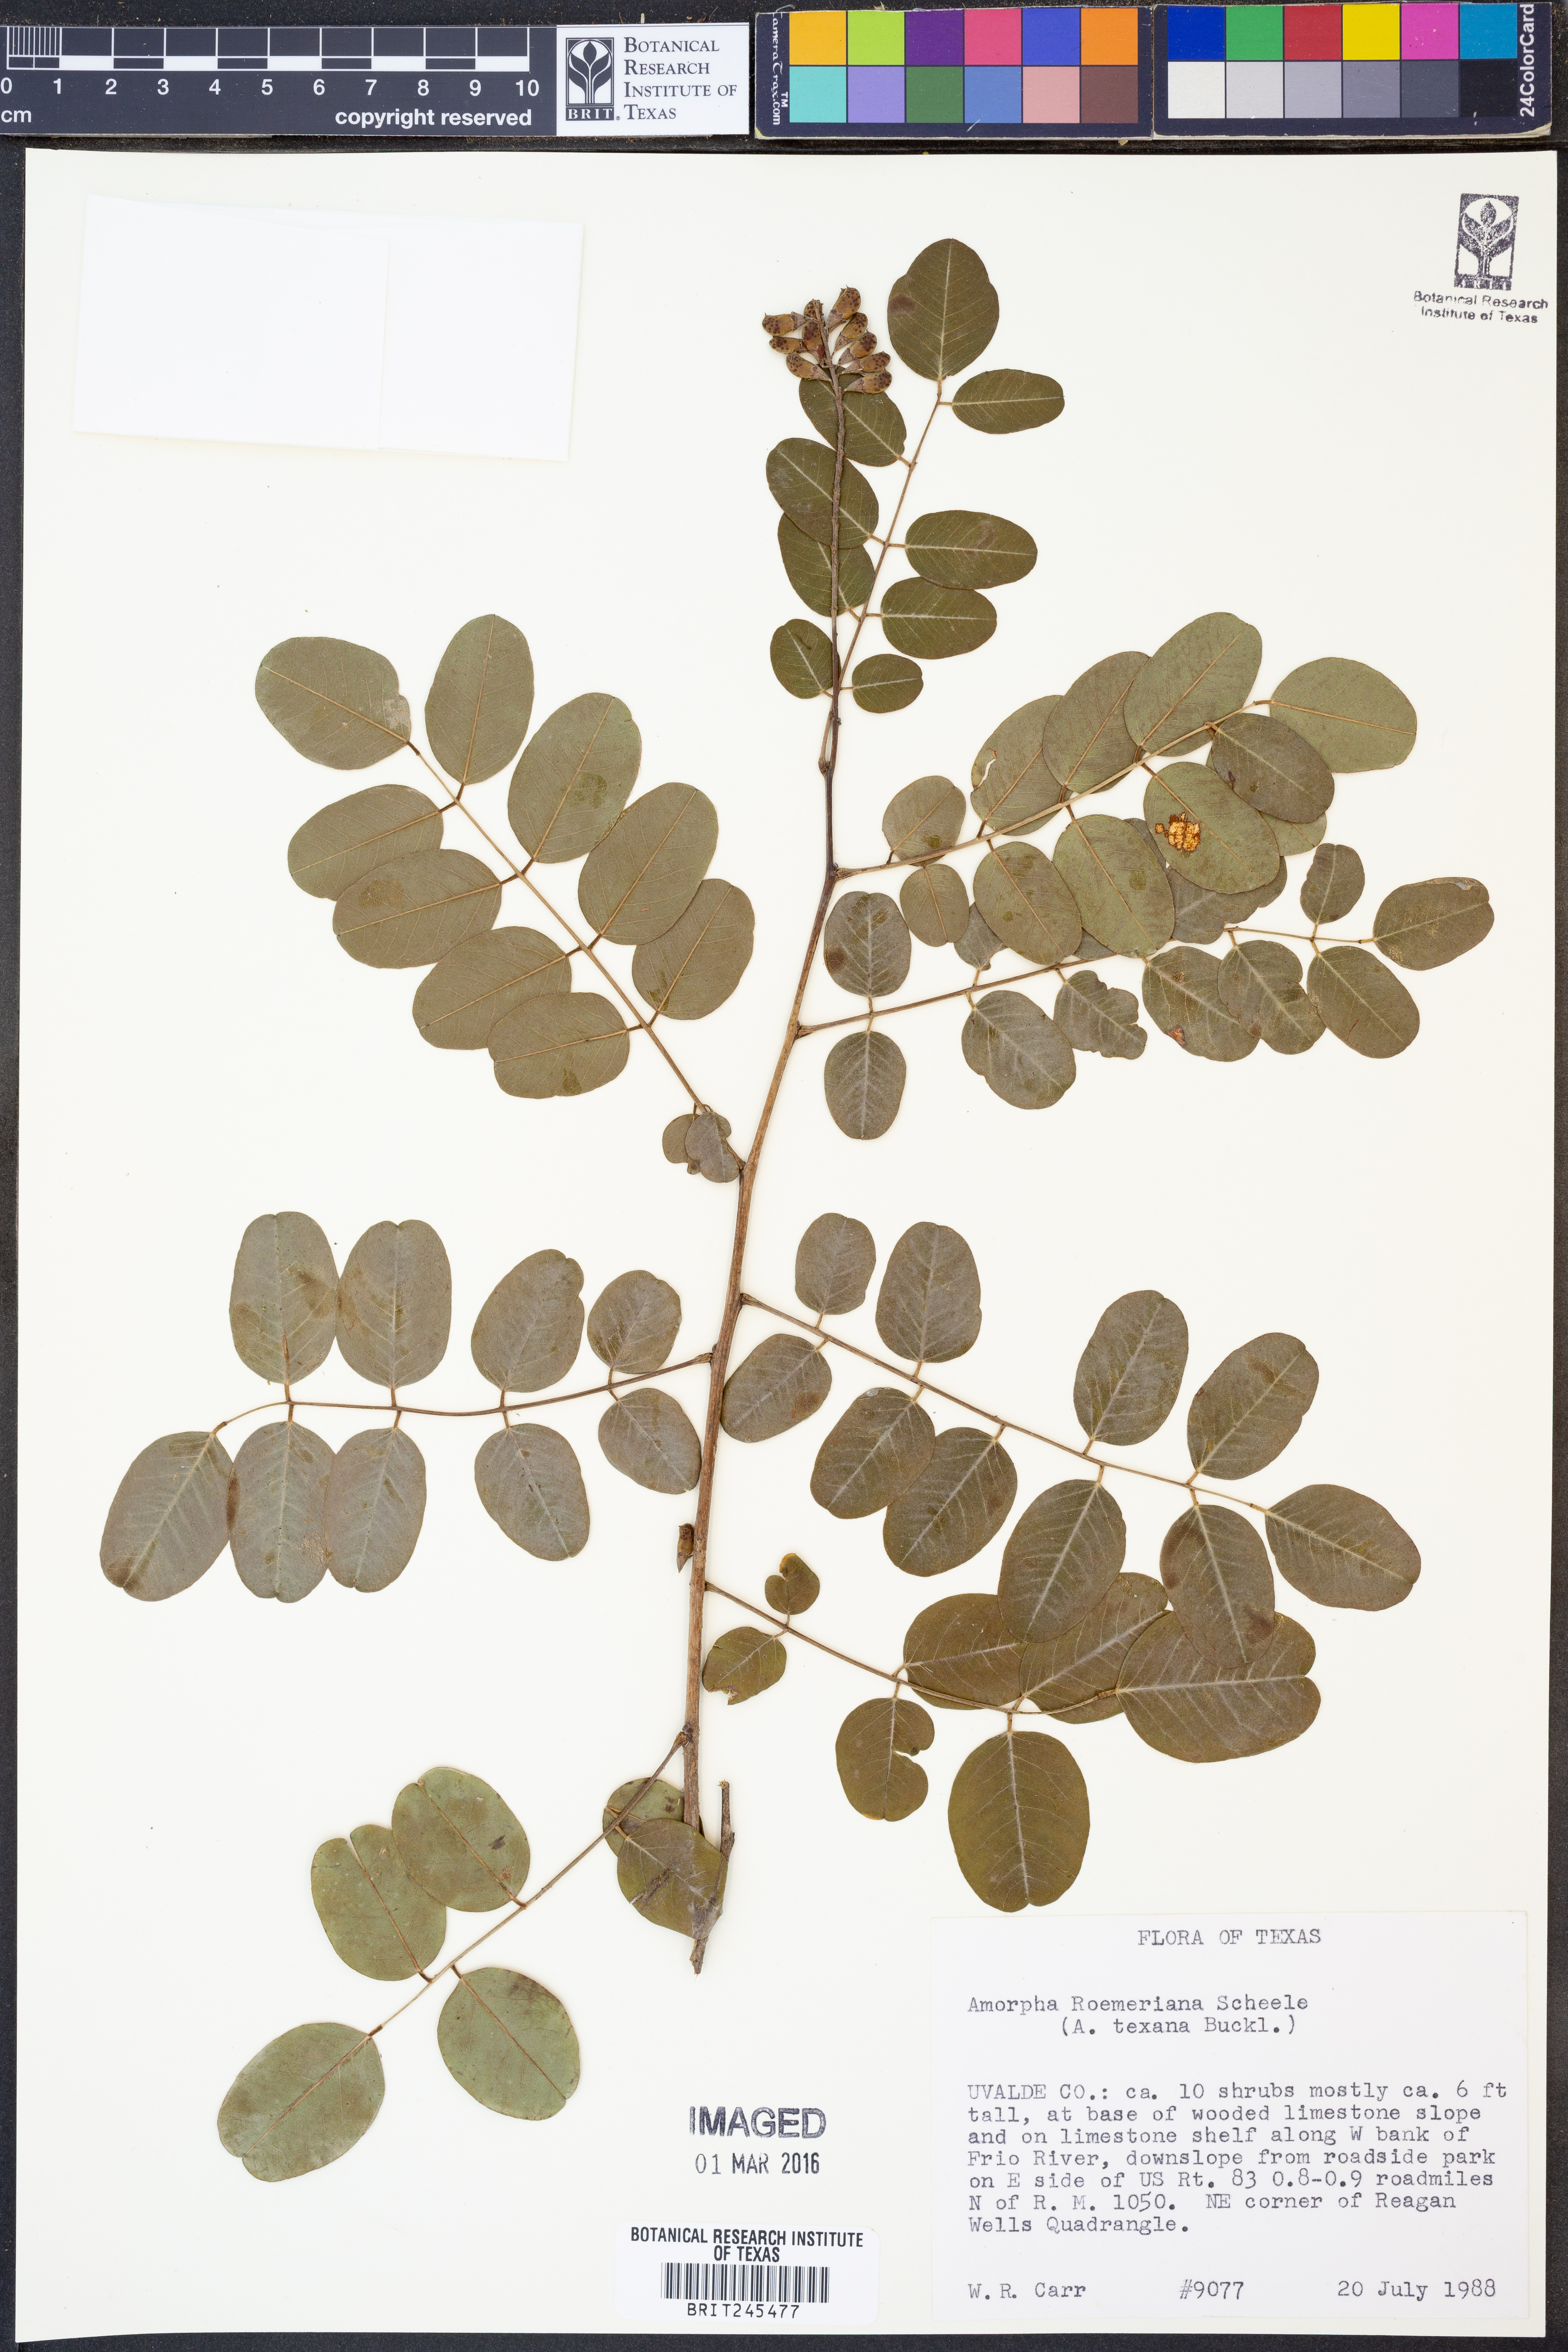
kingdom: Plantae
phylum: Tracheophyta
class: Magnoliopsida
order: Fabales
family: Fabaceae
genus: Amorpha
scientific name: Amorpha roemeriana
